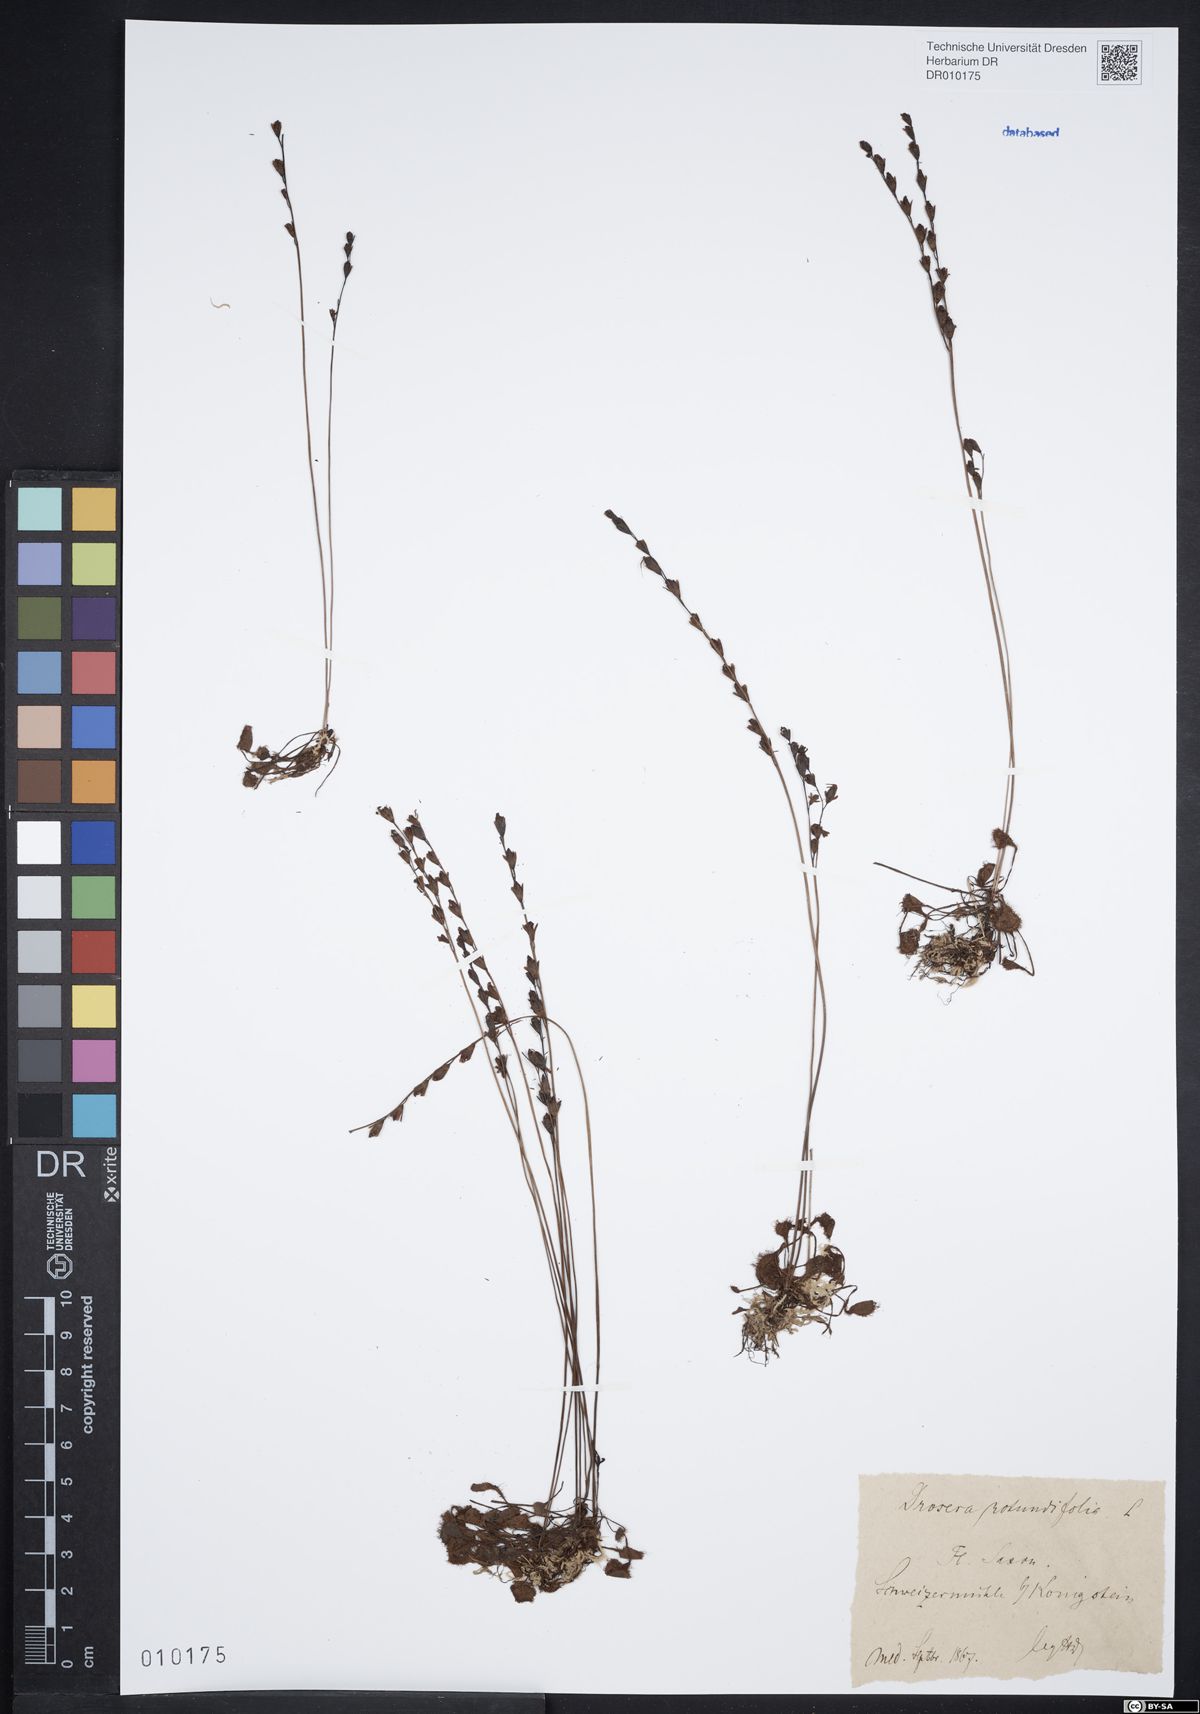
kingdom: Plantae
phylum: Tracheophyta
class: Magnoliopsida
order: Caryophyllales
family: Droseraceae
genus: Drosera
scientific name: Drosera rotundifolia
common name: Round-leaved sundew
